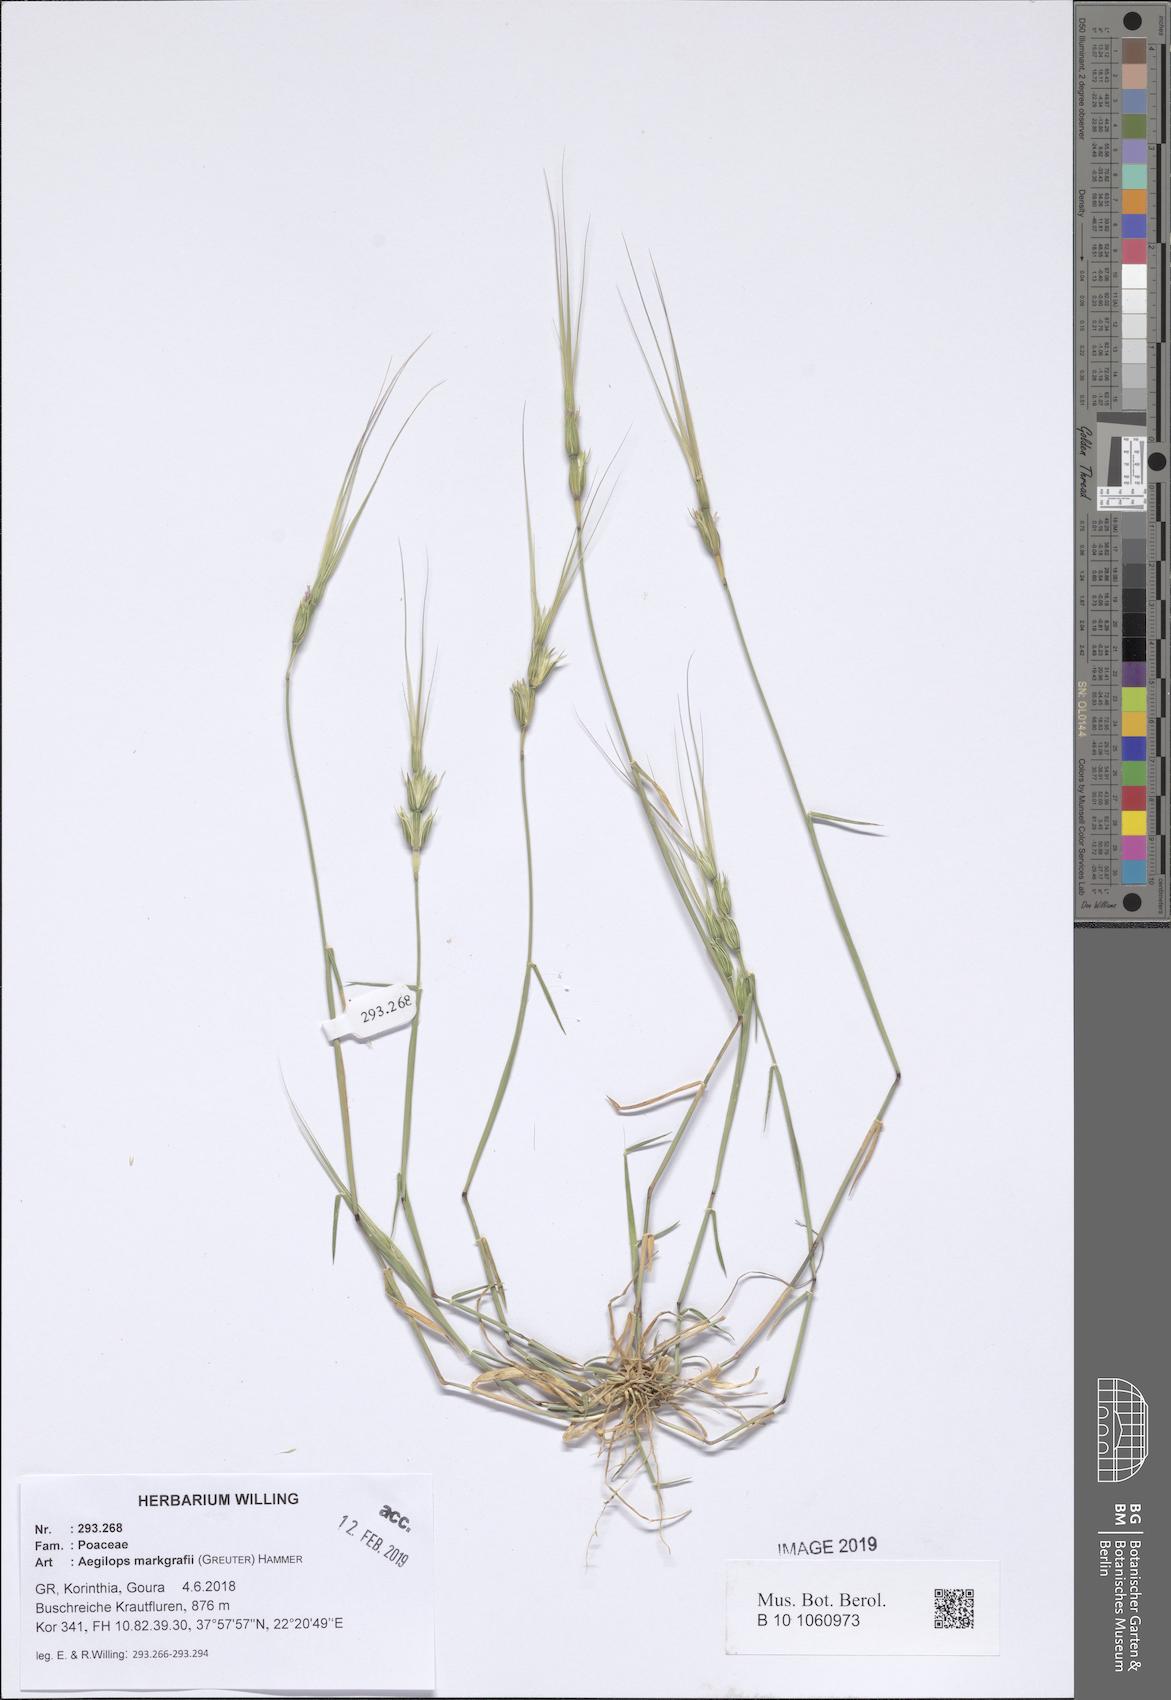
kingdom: Plantae
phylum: Tracheophyta
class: Liliopsida
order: Poales
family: Poaceae
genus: Aegilops
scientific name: Aegilops caudata
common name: Cretan hard-grass
